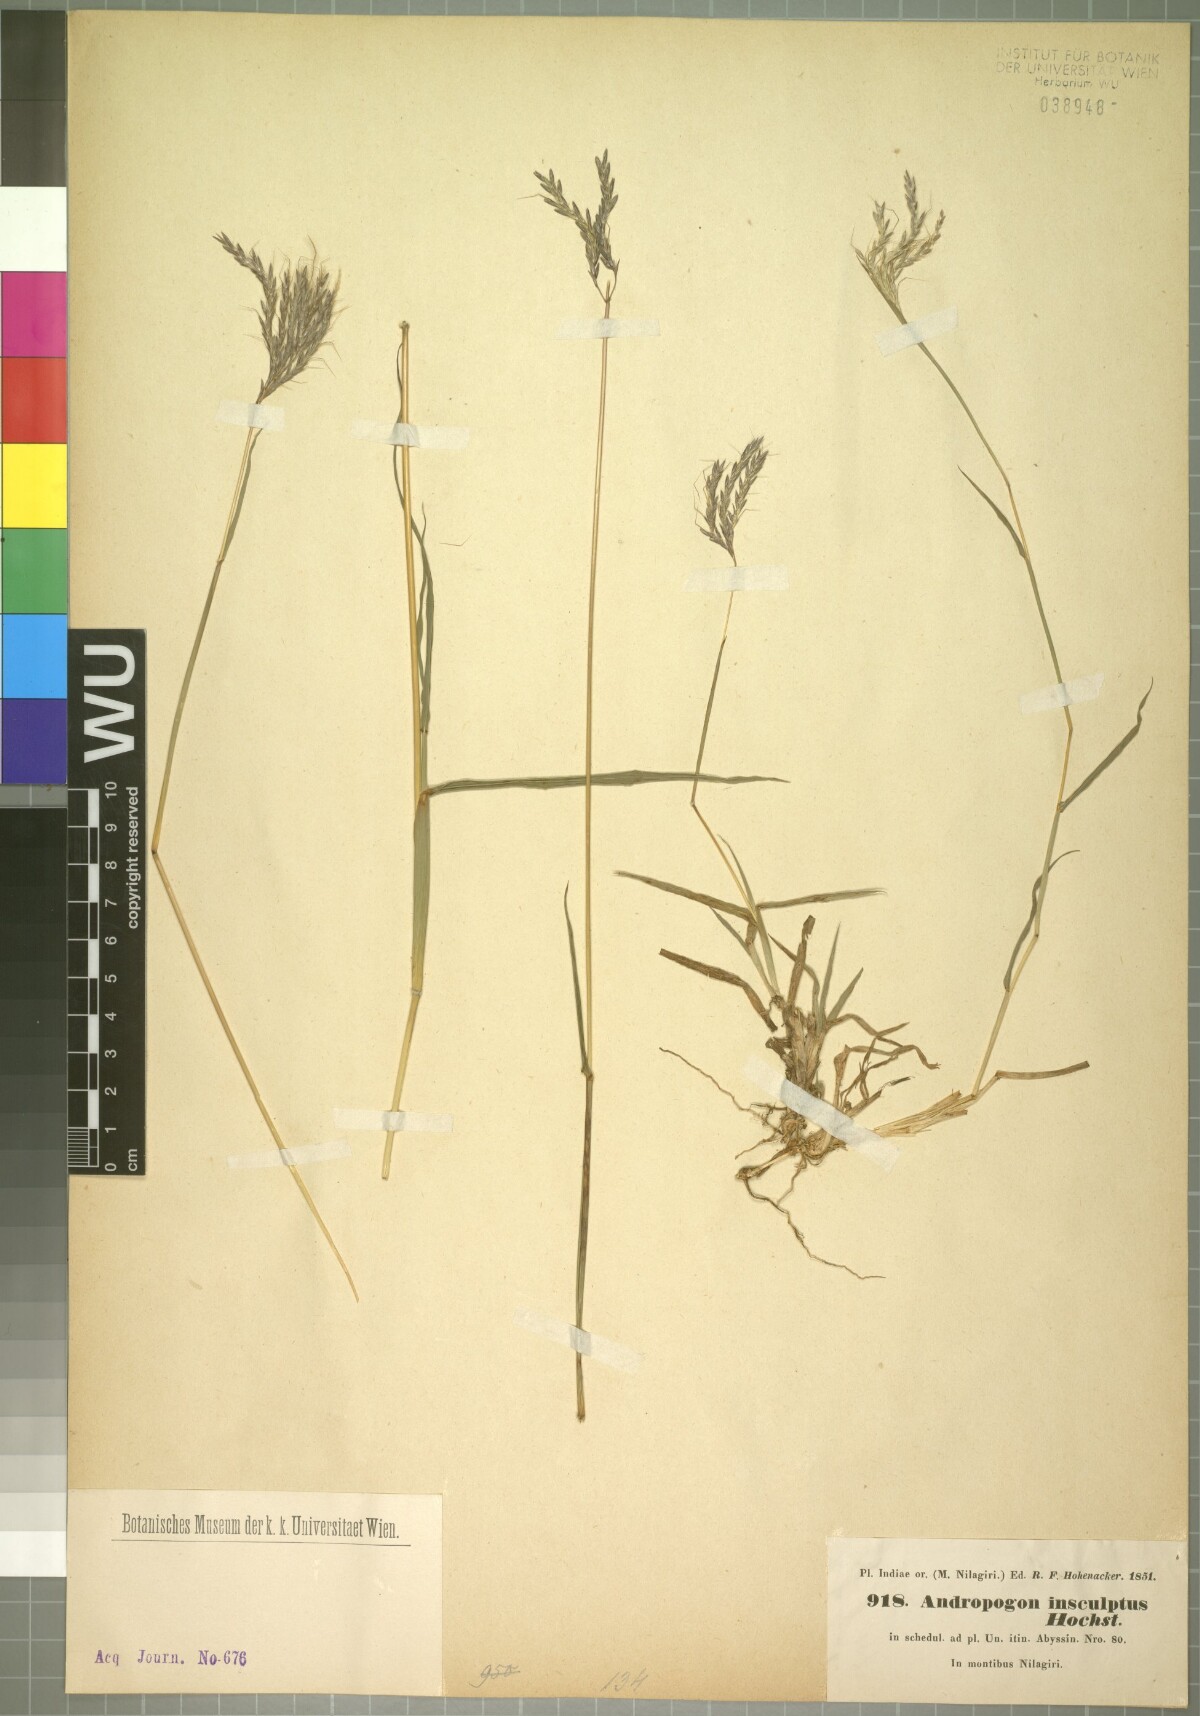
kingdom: Plantae
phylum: Tracheophyta
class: Liliopsida
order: Poales
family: Poaceae
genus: Bothriochloa
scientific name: Bothriochloa insculpta
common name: Creeping-bluegrass
